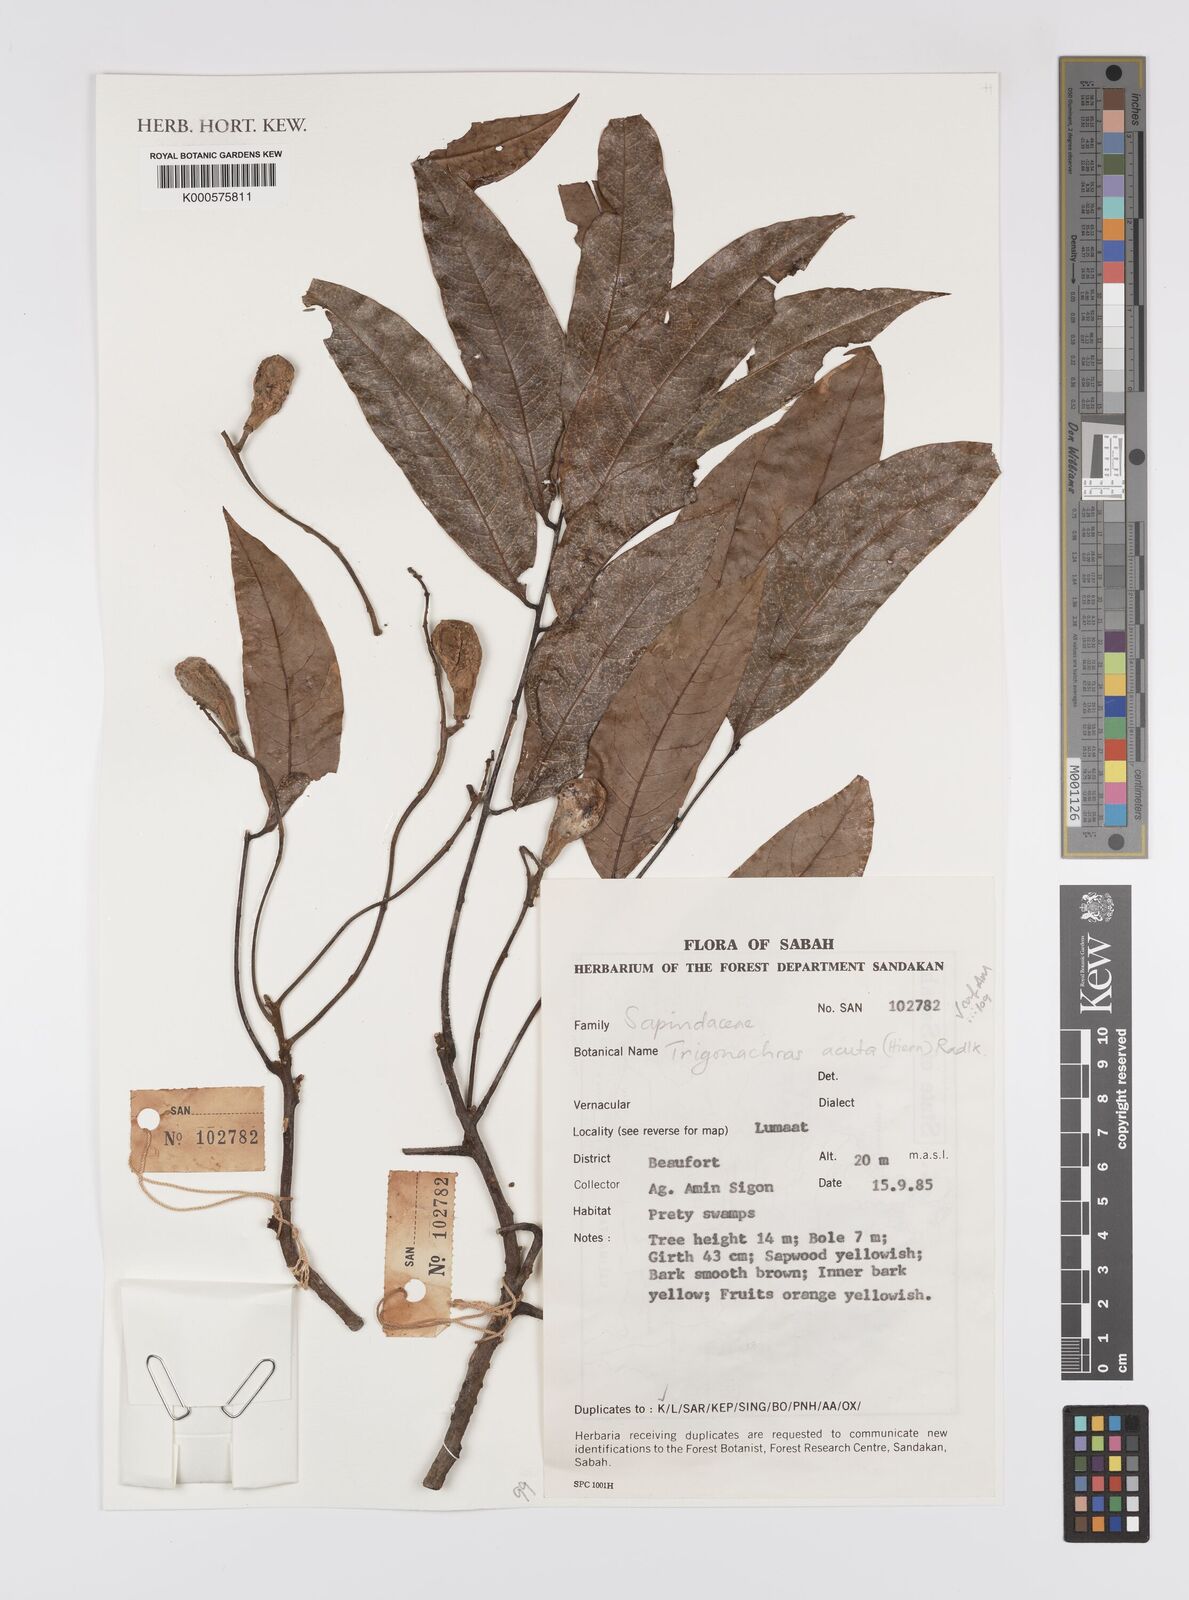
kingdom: Plantae
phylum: Tracheophyta
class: Magnoliopsida
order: Sapindales
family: Sapindaceae
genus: Trigonachras
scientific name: Trigonachras acuta
